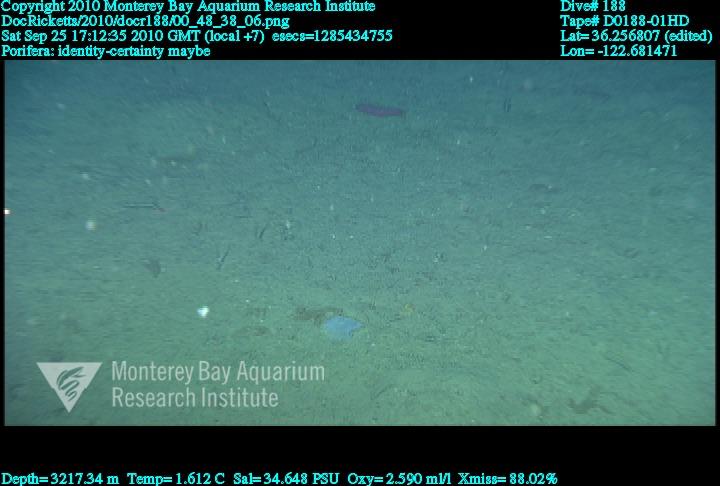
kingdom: Animalia
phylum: Porifera
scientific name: Porifera
